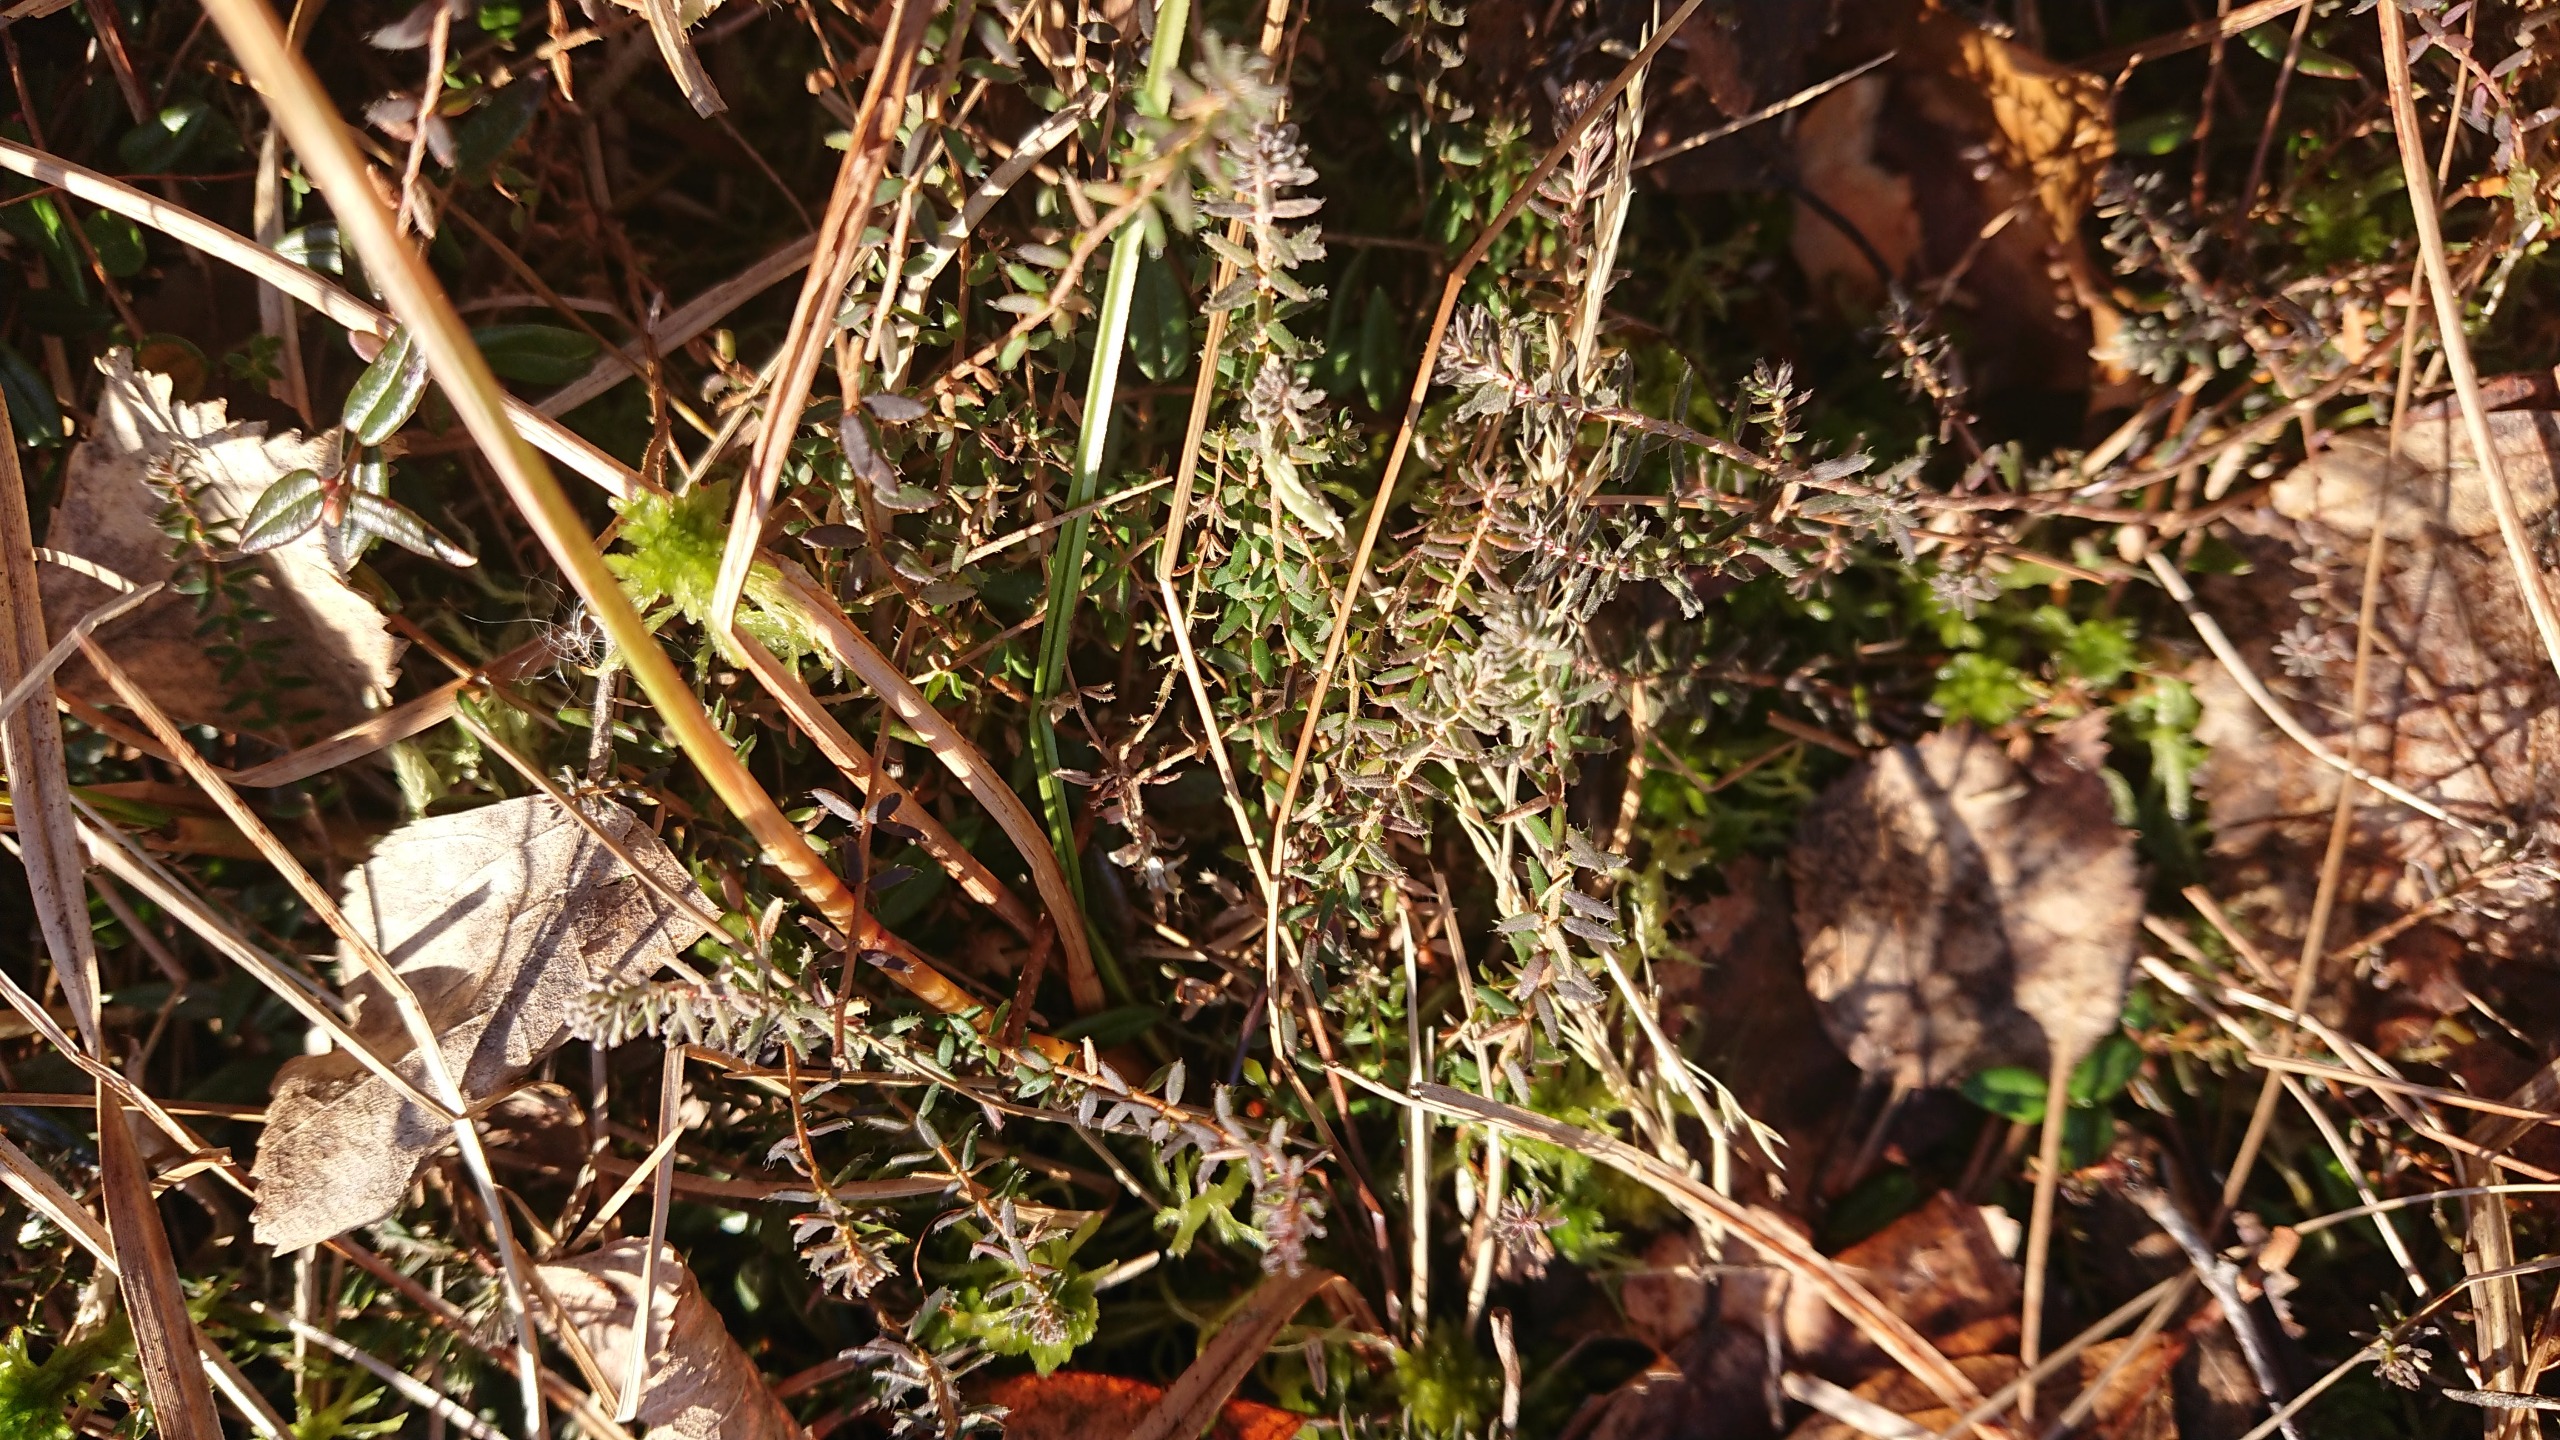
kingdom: Plantae
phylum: Tracheophyta
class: Magnoliopsida
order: Ericales
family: Ericaceae
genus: Erica
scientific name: Erica tetralix
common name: Klokkelyng
